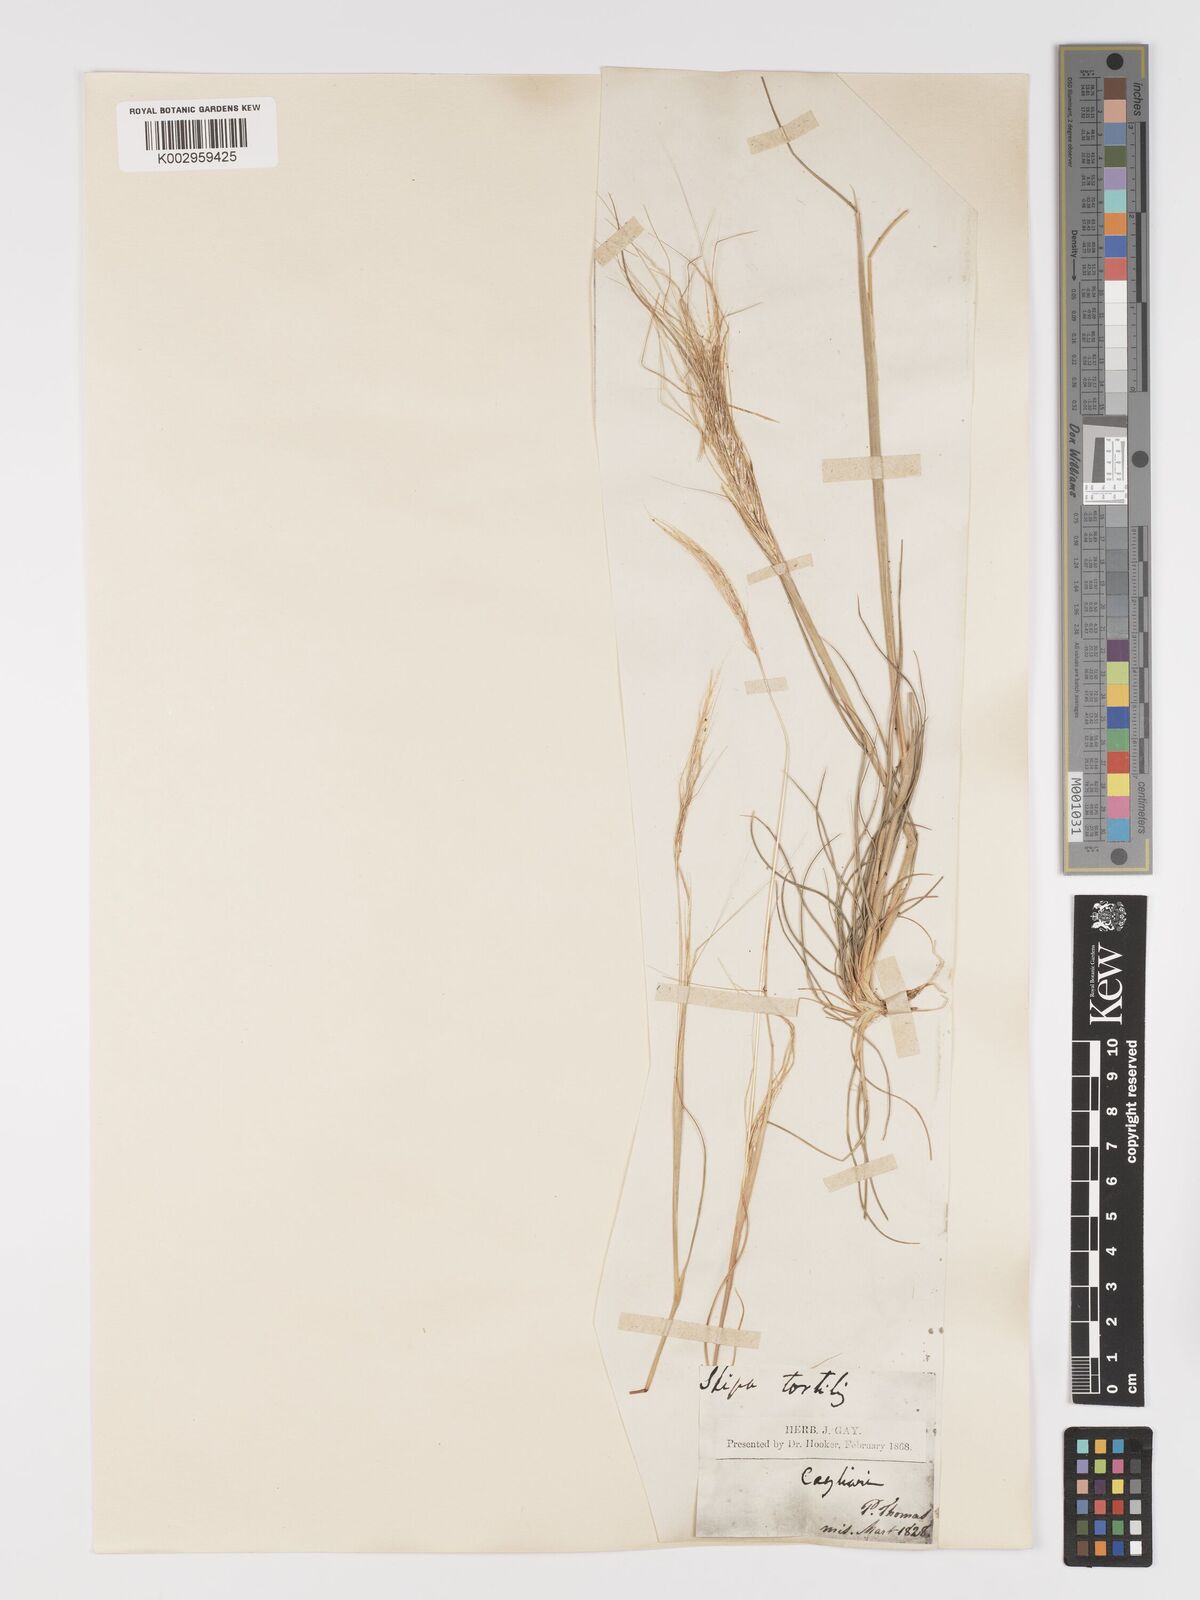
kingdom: Plantae
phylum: Tracheophyta
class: Liliopsida
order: Poales
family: Poaceae
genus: Stipa
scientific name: Stipa
